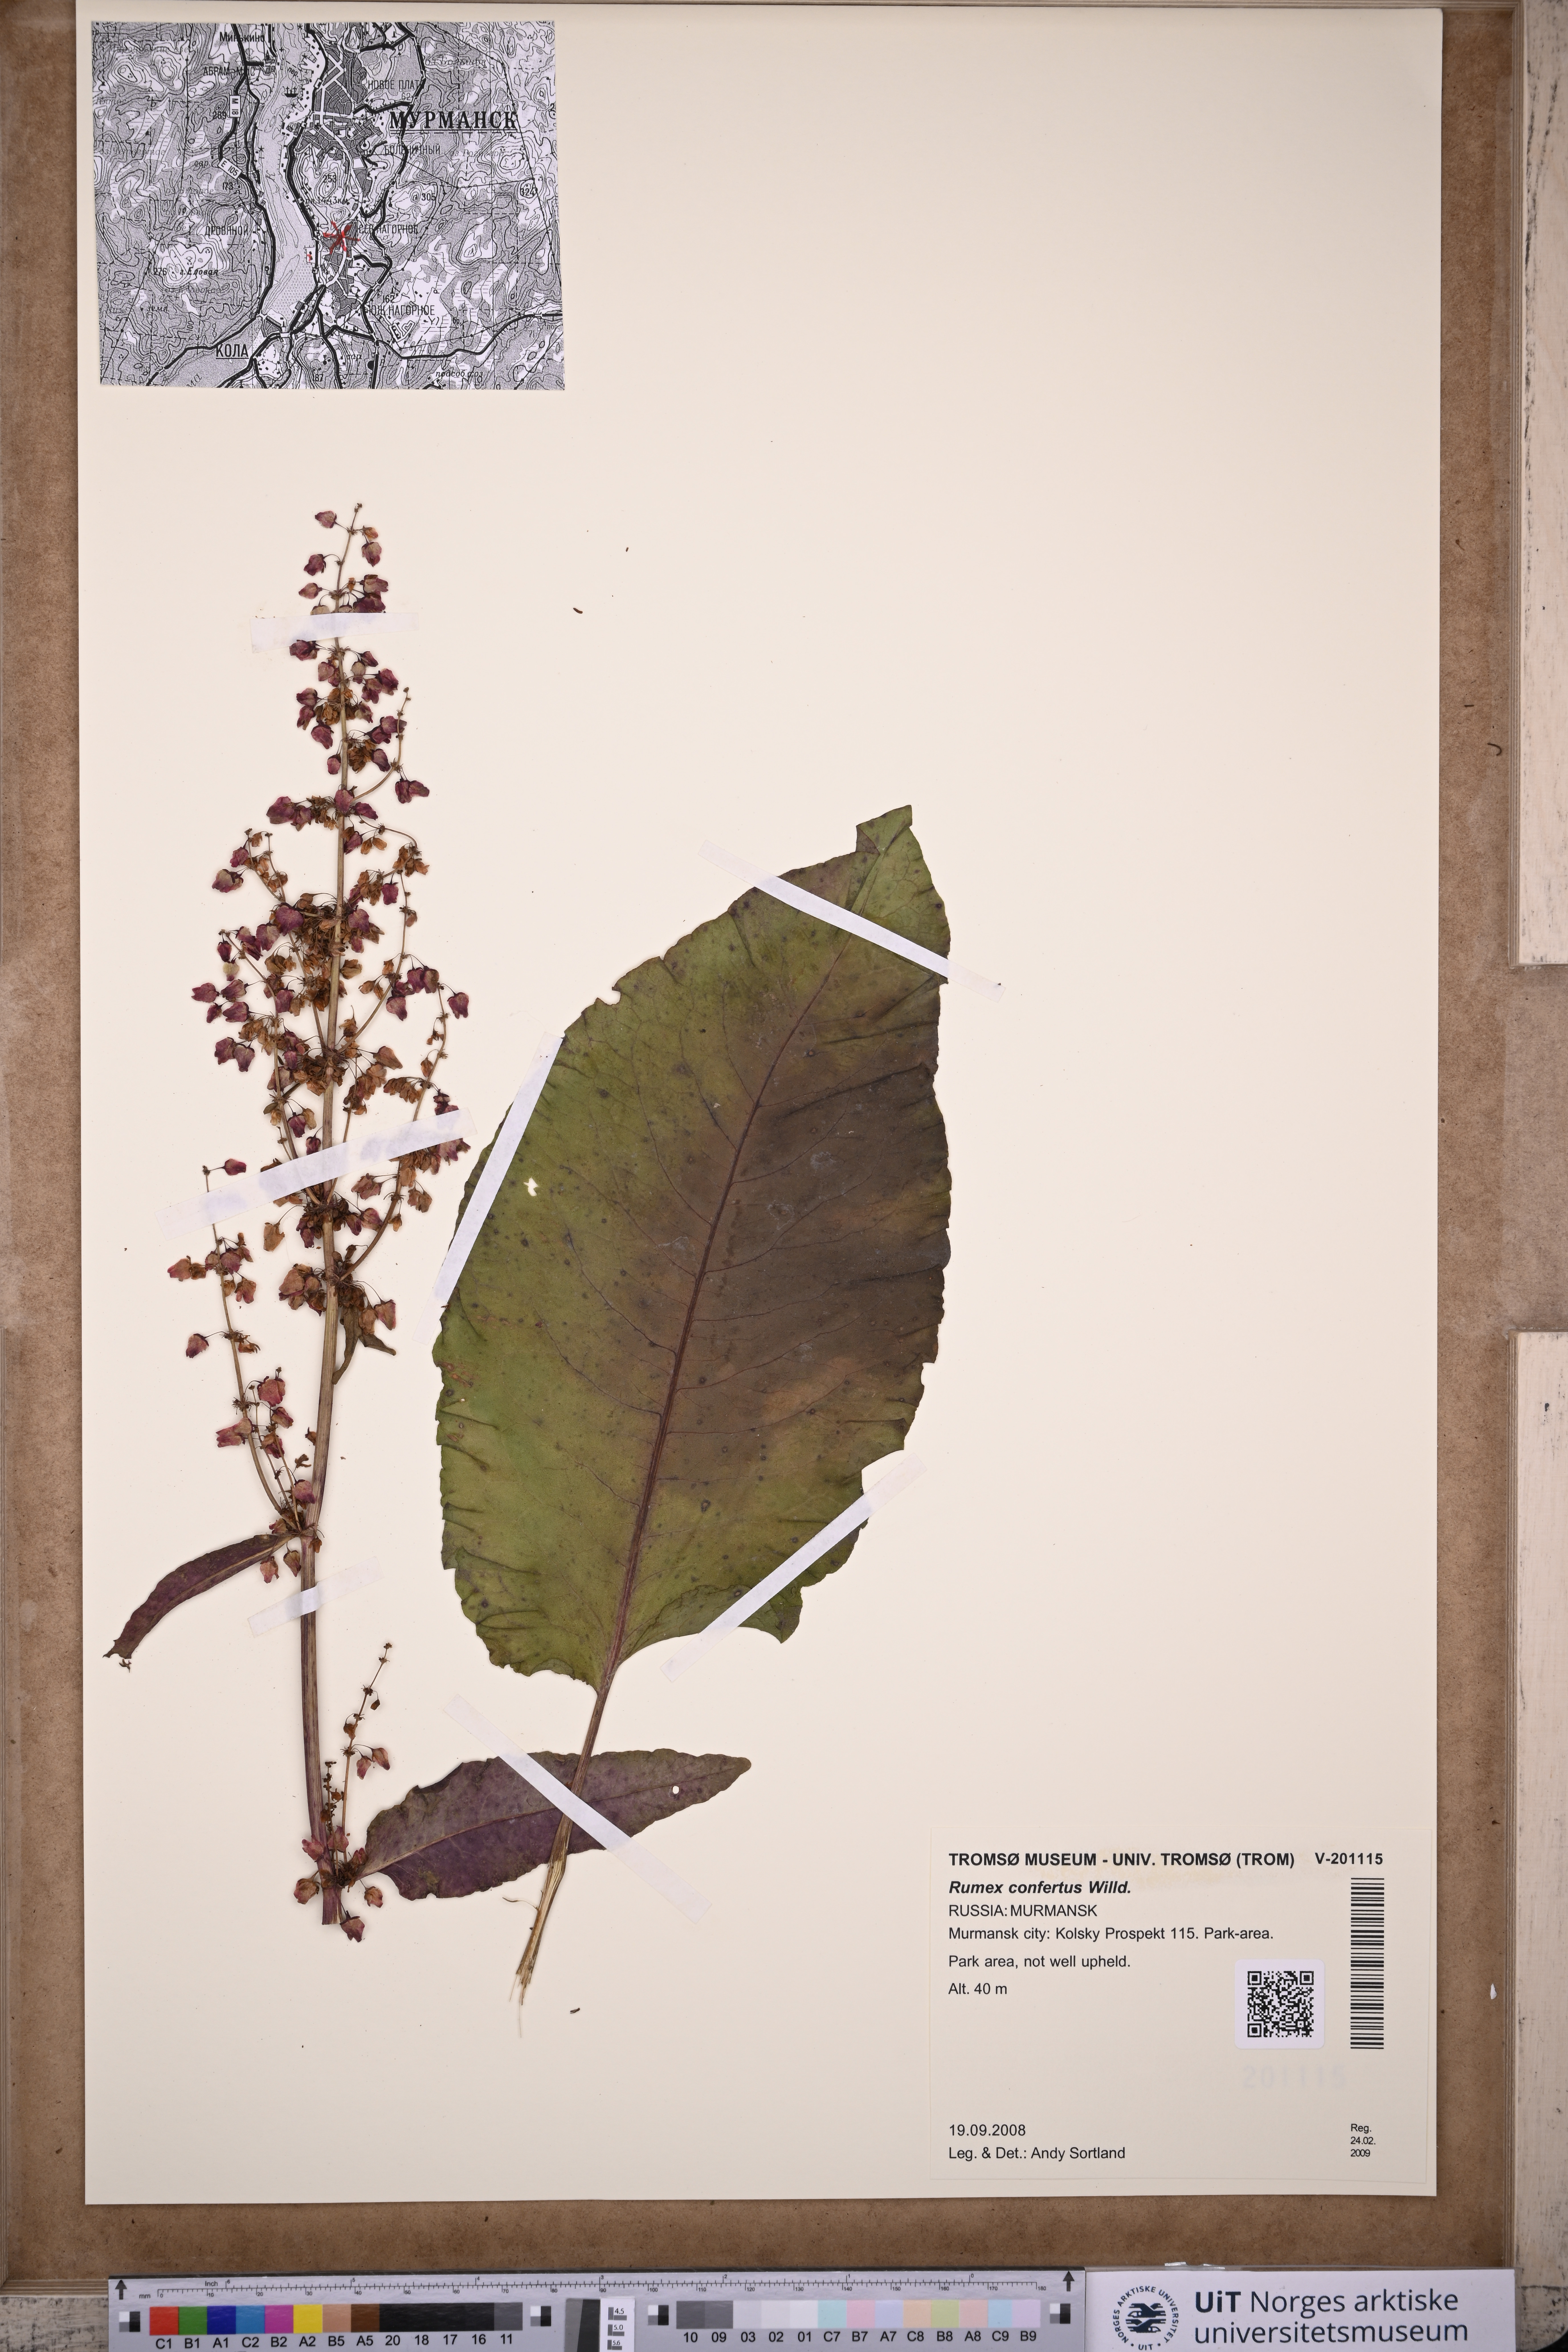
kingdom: Plantae
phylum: Tracheophyta
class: Magnoliopsida
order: Caryophyllales
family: Polygonaceae
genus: Rumex
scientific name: Rumex confertus
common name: Russian dock
